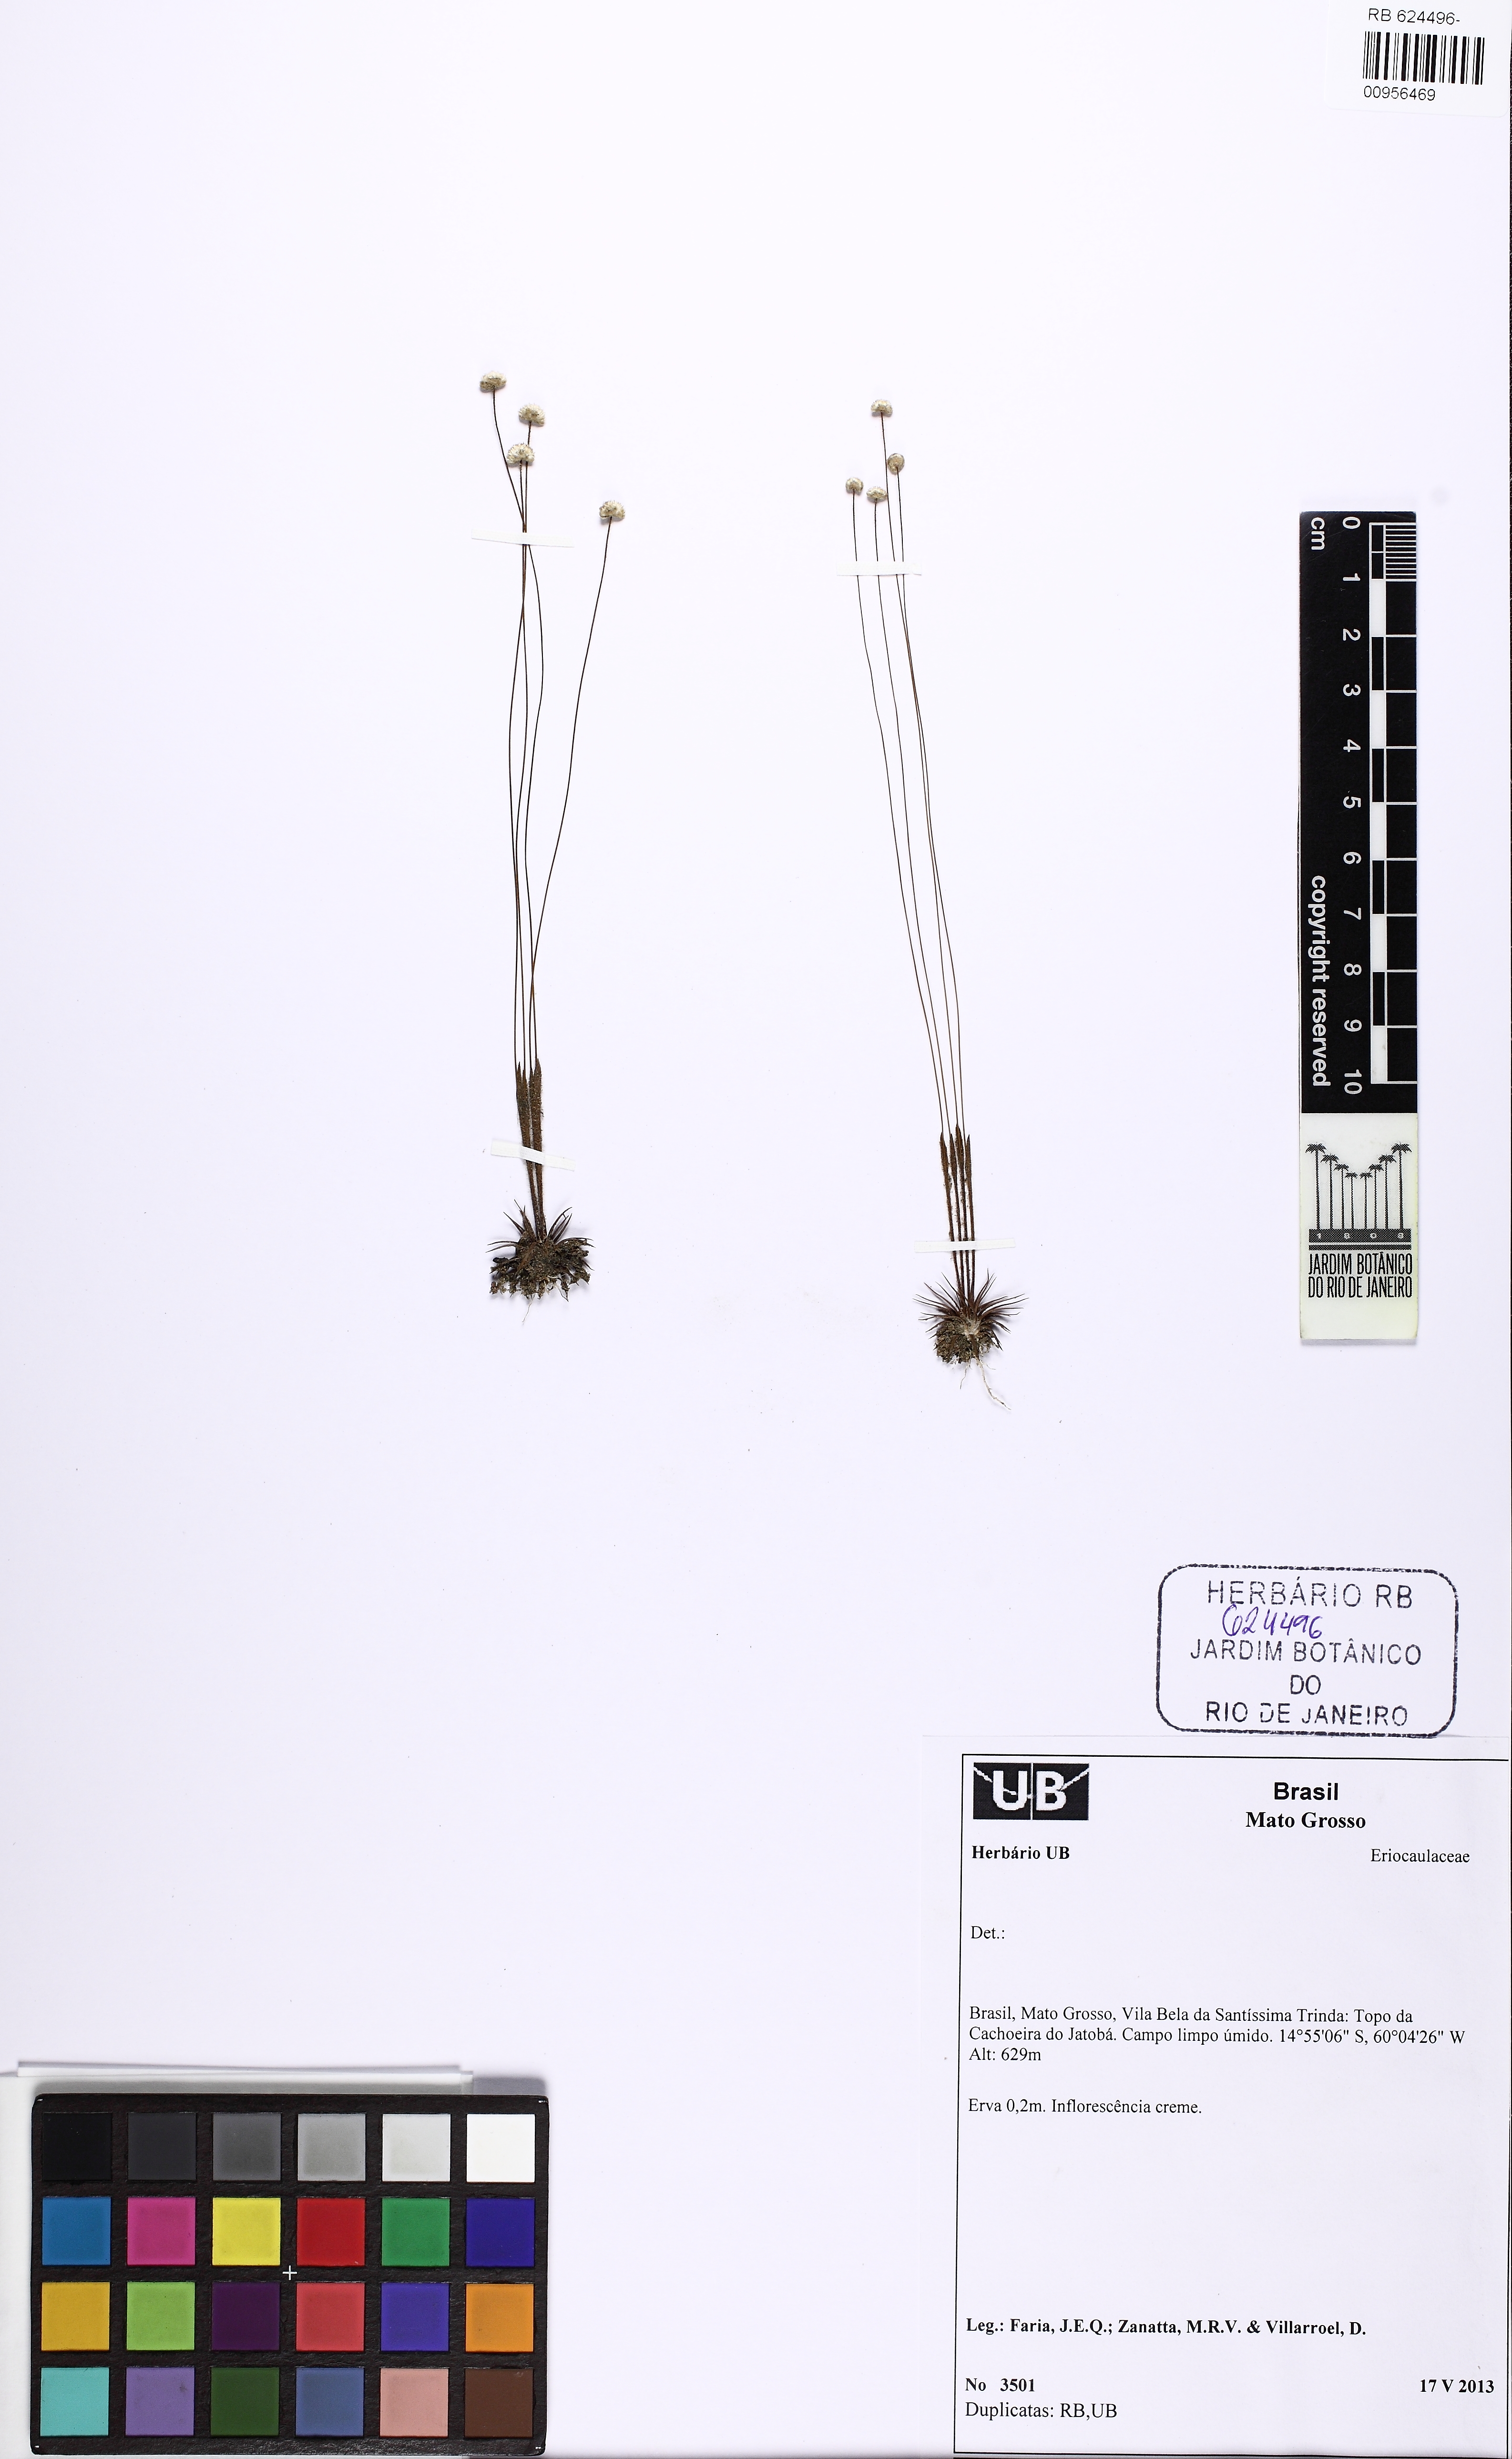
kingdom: Plantae
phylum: Tracheophyta
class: Liliopsida
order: Poales
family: Eriocaulaceae
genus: Syngonanthus
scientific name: Syngonanthus gracilis
